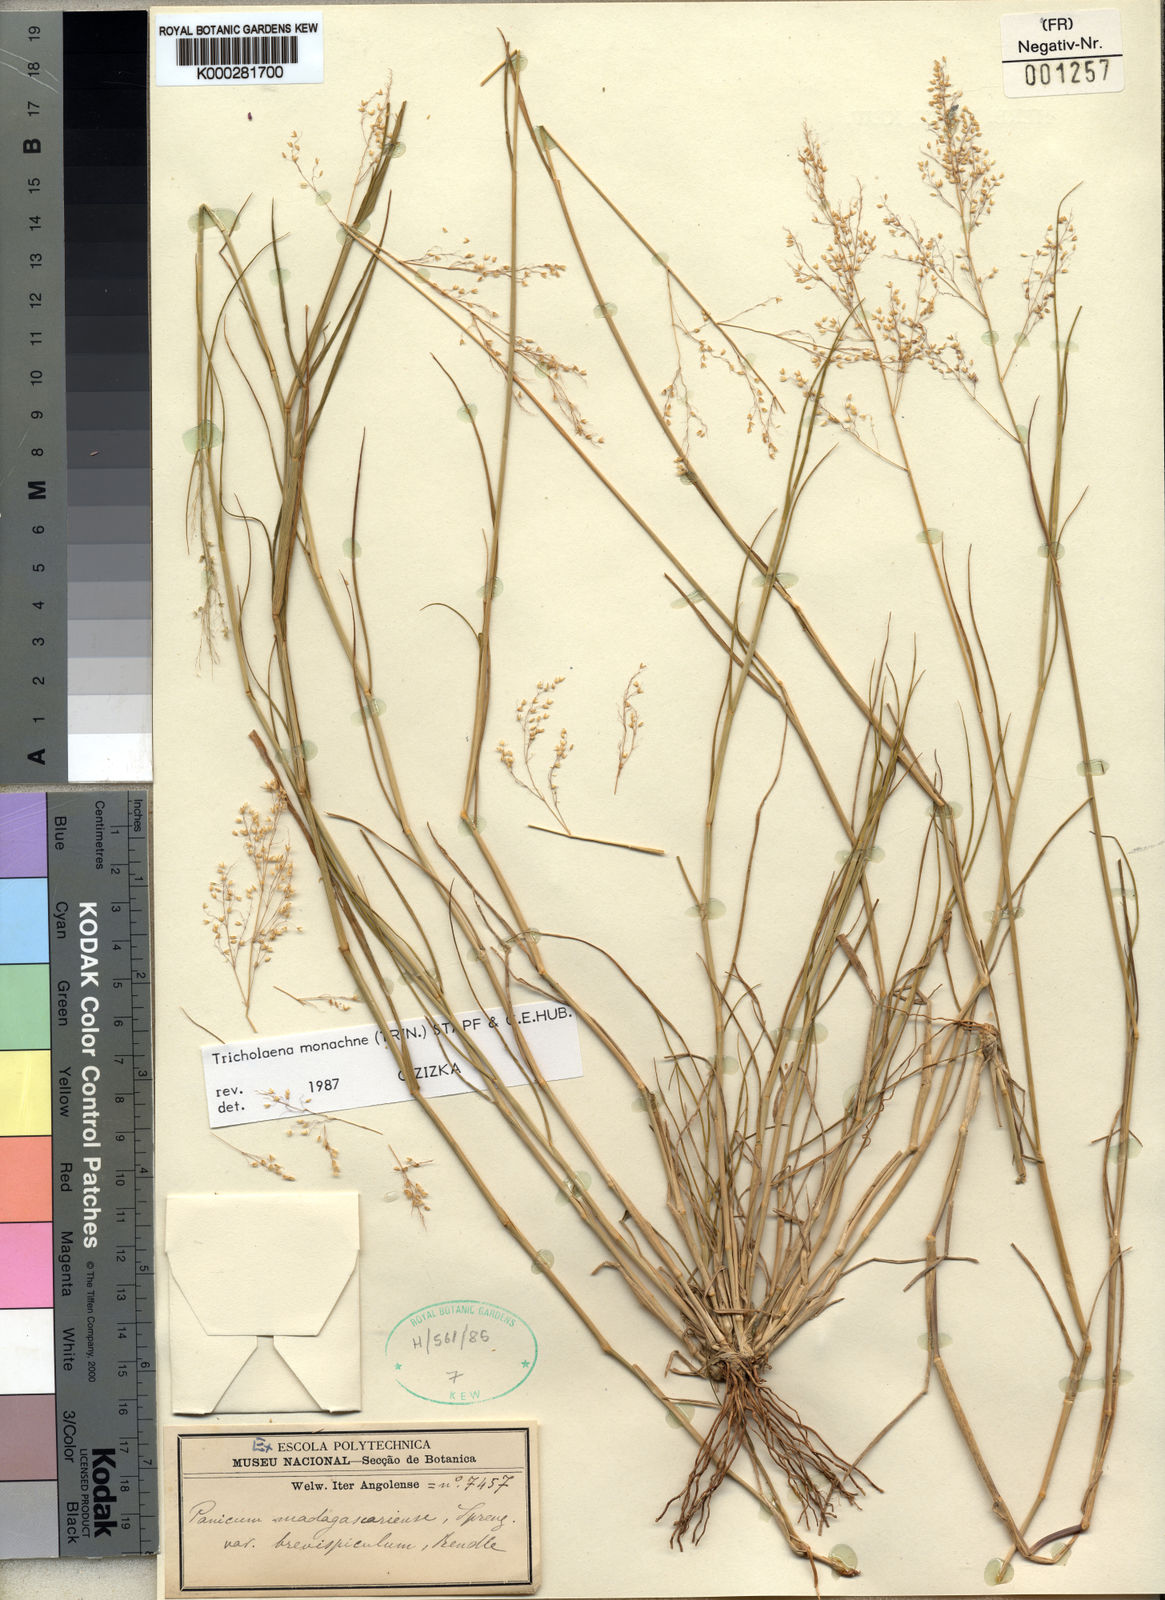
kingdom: Plantae
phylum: Tracheophyta
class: Liliopsida
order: Poales
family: Poaceae
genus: Tricholaena
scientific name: Tricholaena monachne
